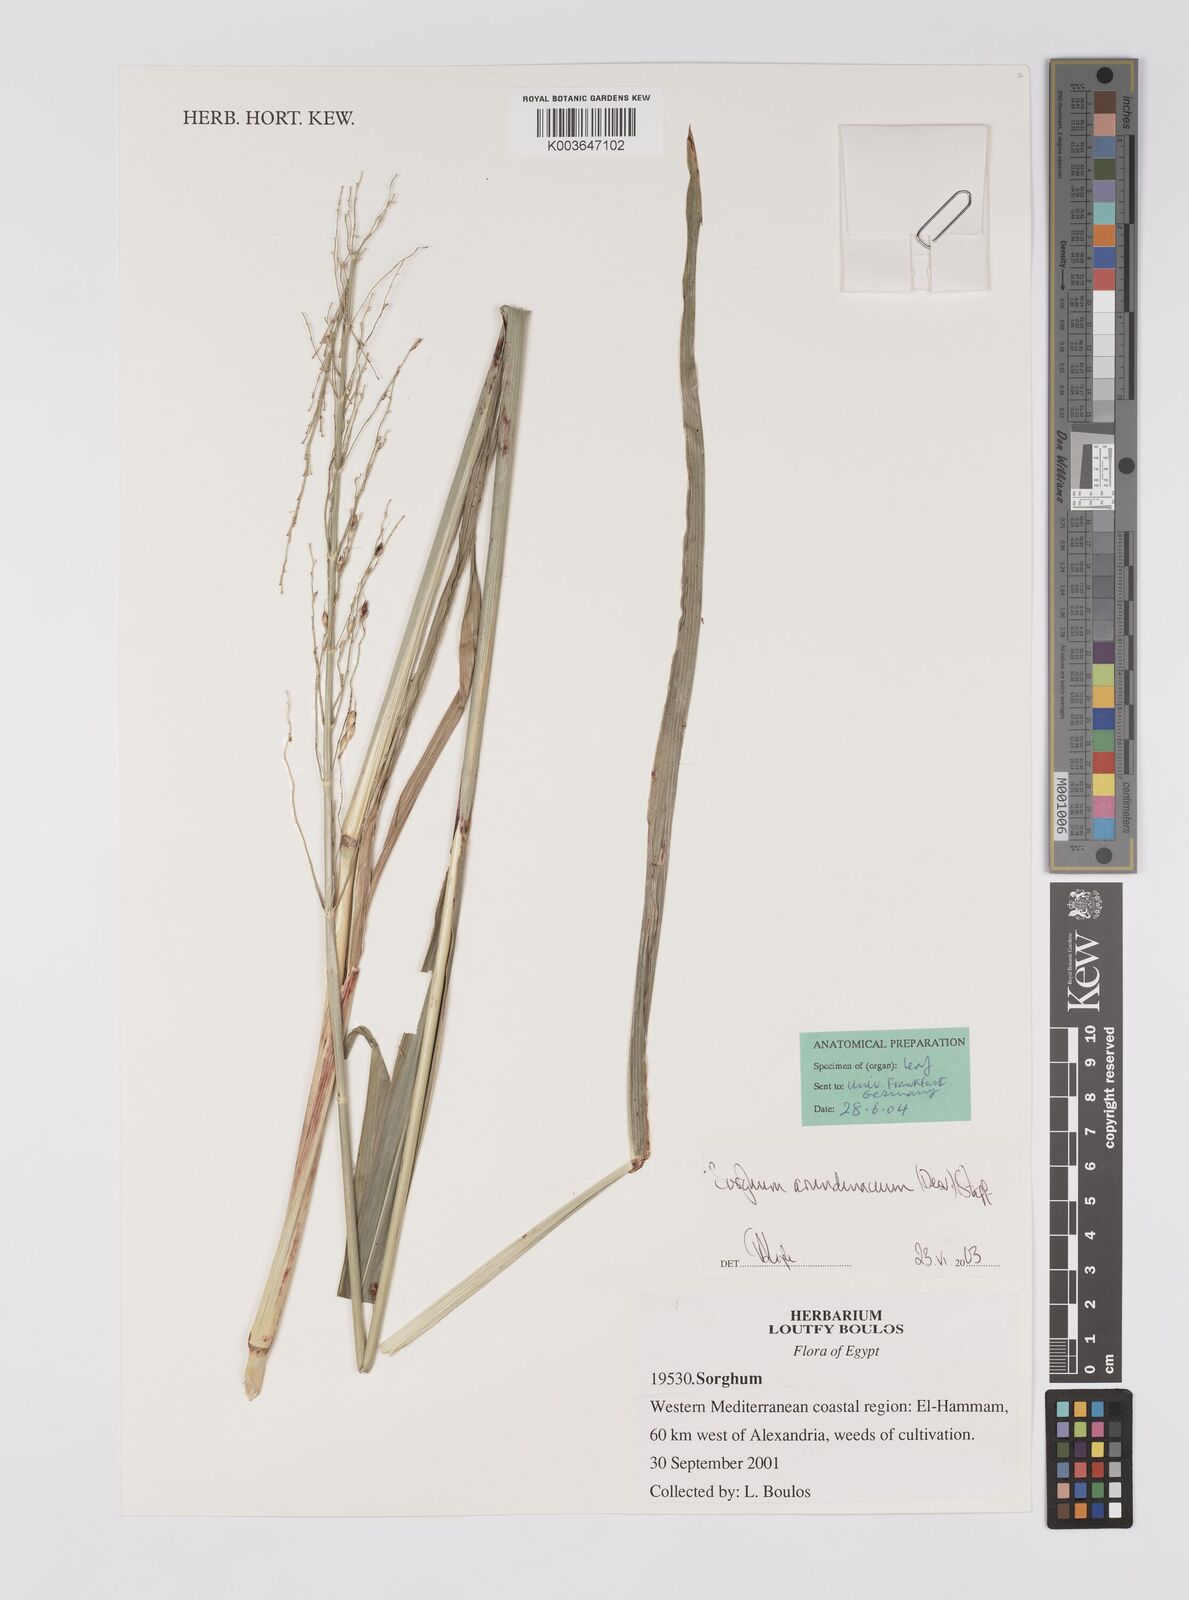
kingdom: Plantae
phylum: Tracheophyta
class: Liliopsida
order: Poales
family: Poaceae
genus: Sorghum
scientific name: Sorghum arundinaceum
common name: Sorghum
